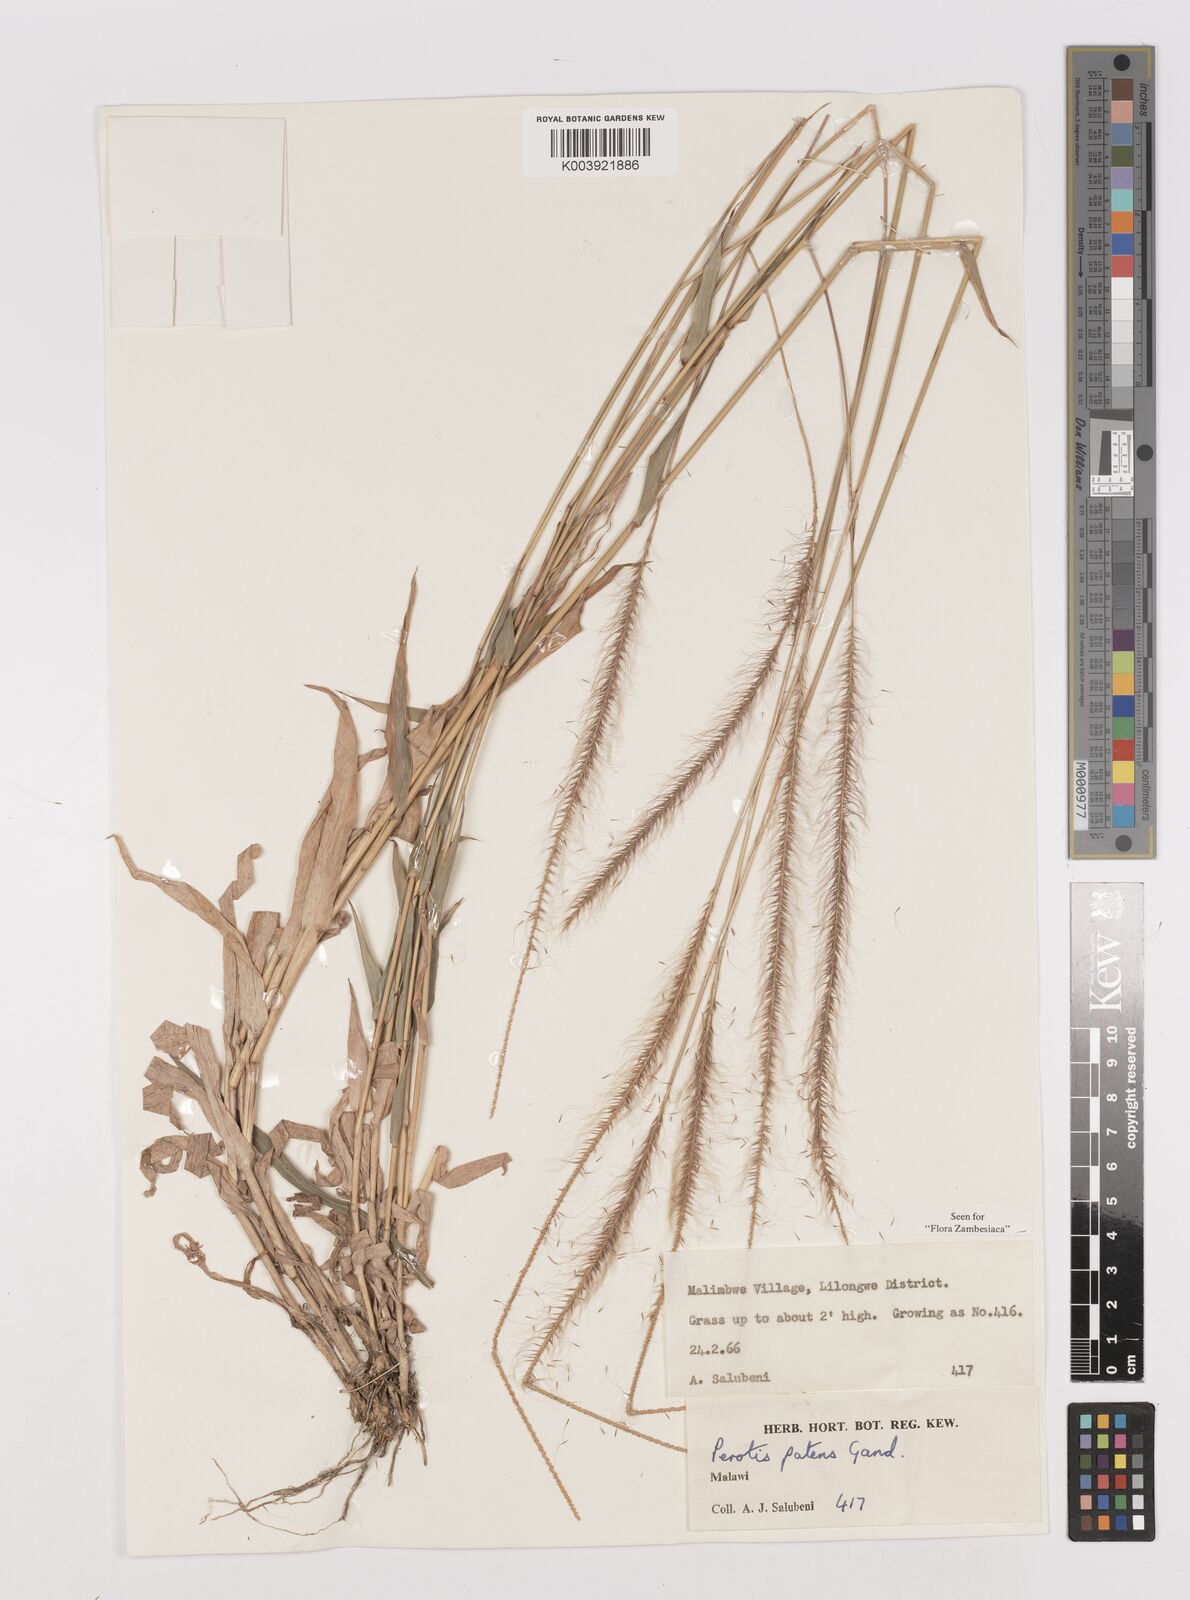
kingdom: Plantae
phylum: Tracheophyta
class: Liliopsida
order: Poales
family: Poaceae
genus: Perotis
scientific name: Perotis patens
